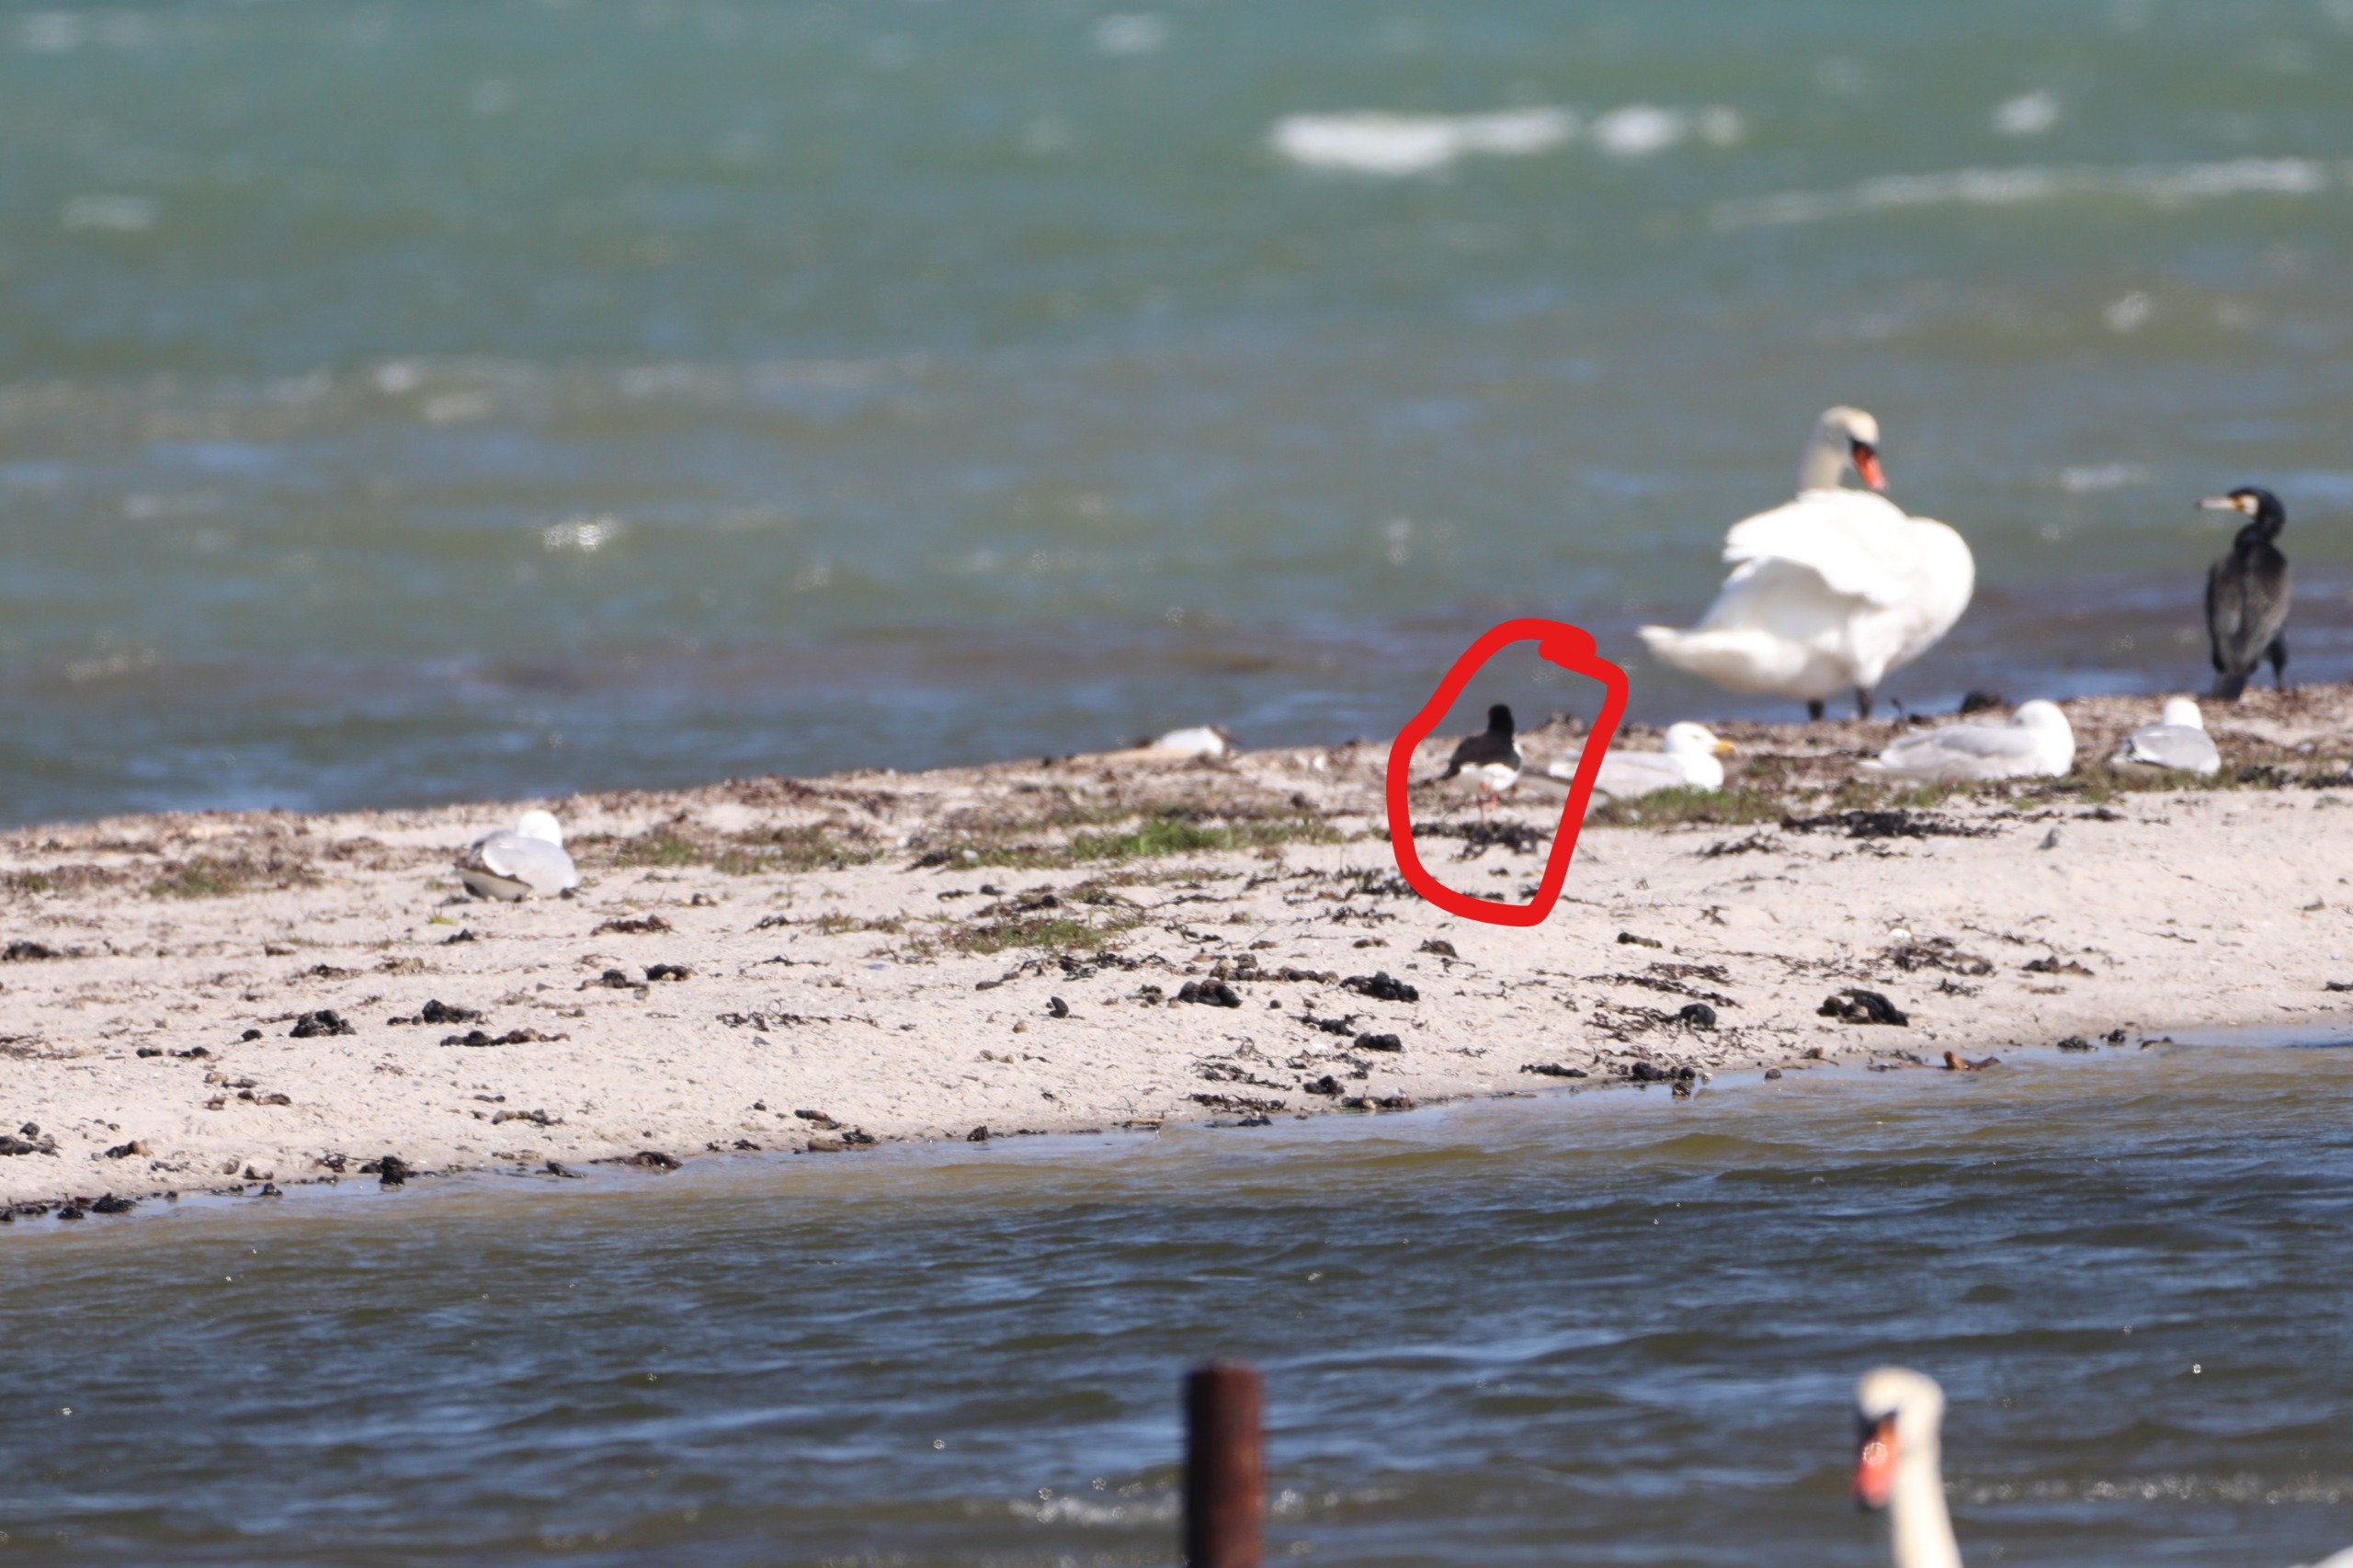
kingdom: Animalia
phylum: Chordata
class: Aves
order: Charadriiformes
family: Haematopodidae
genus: Haematopus
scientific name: Haematopus ostralegus
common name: Strandskade
